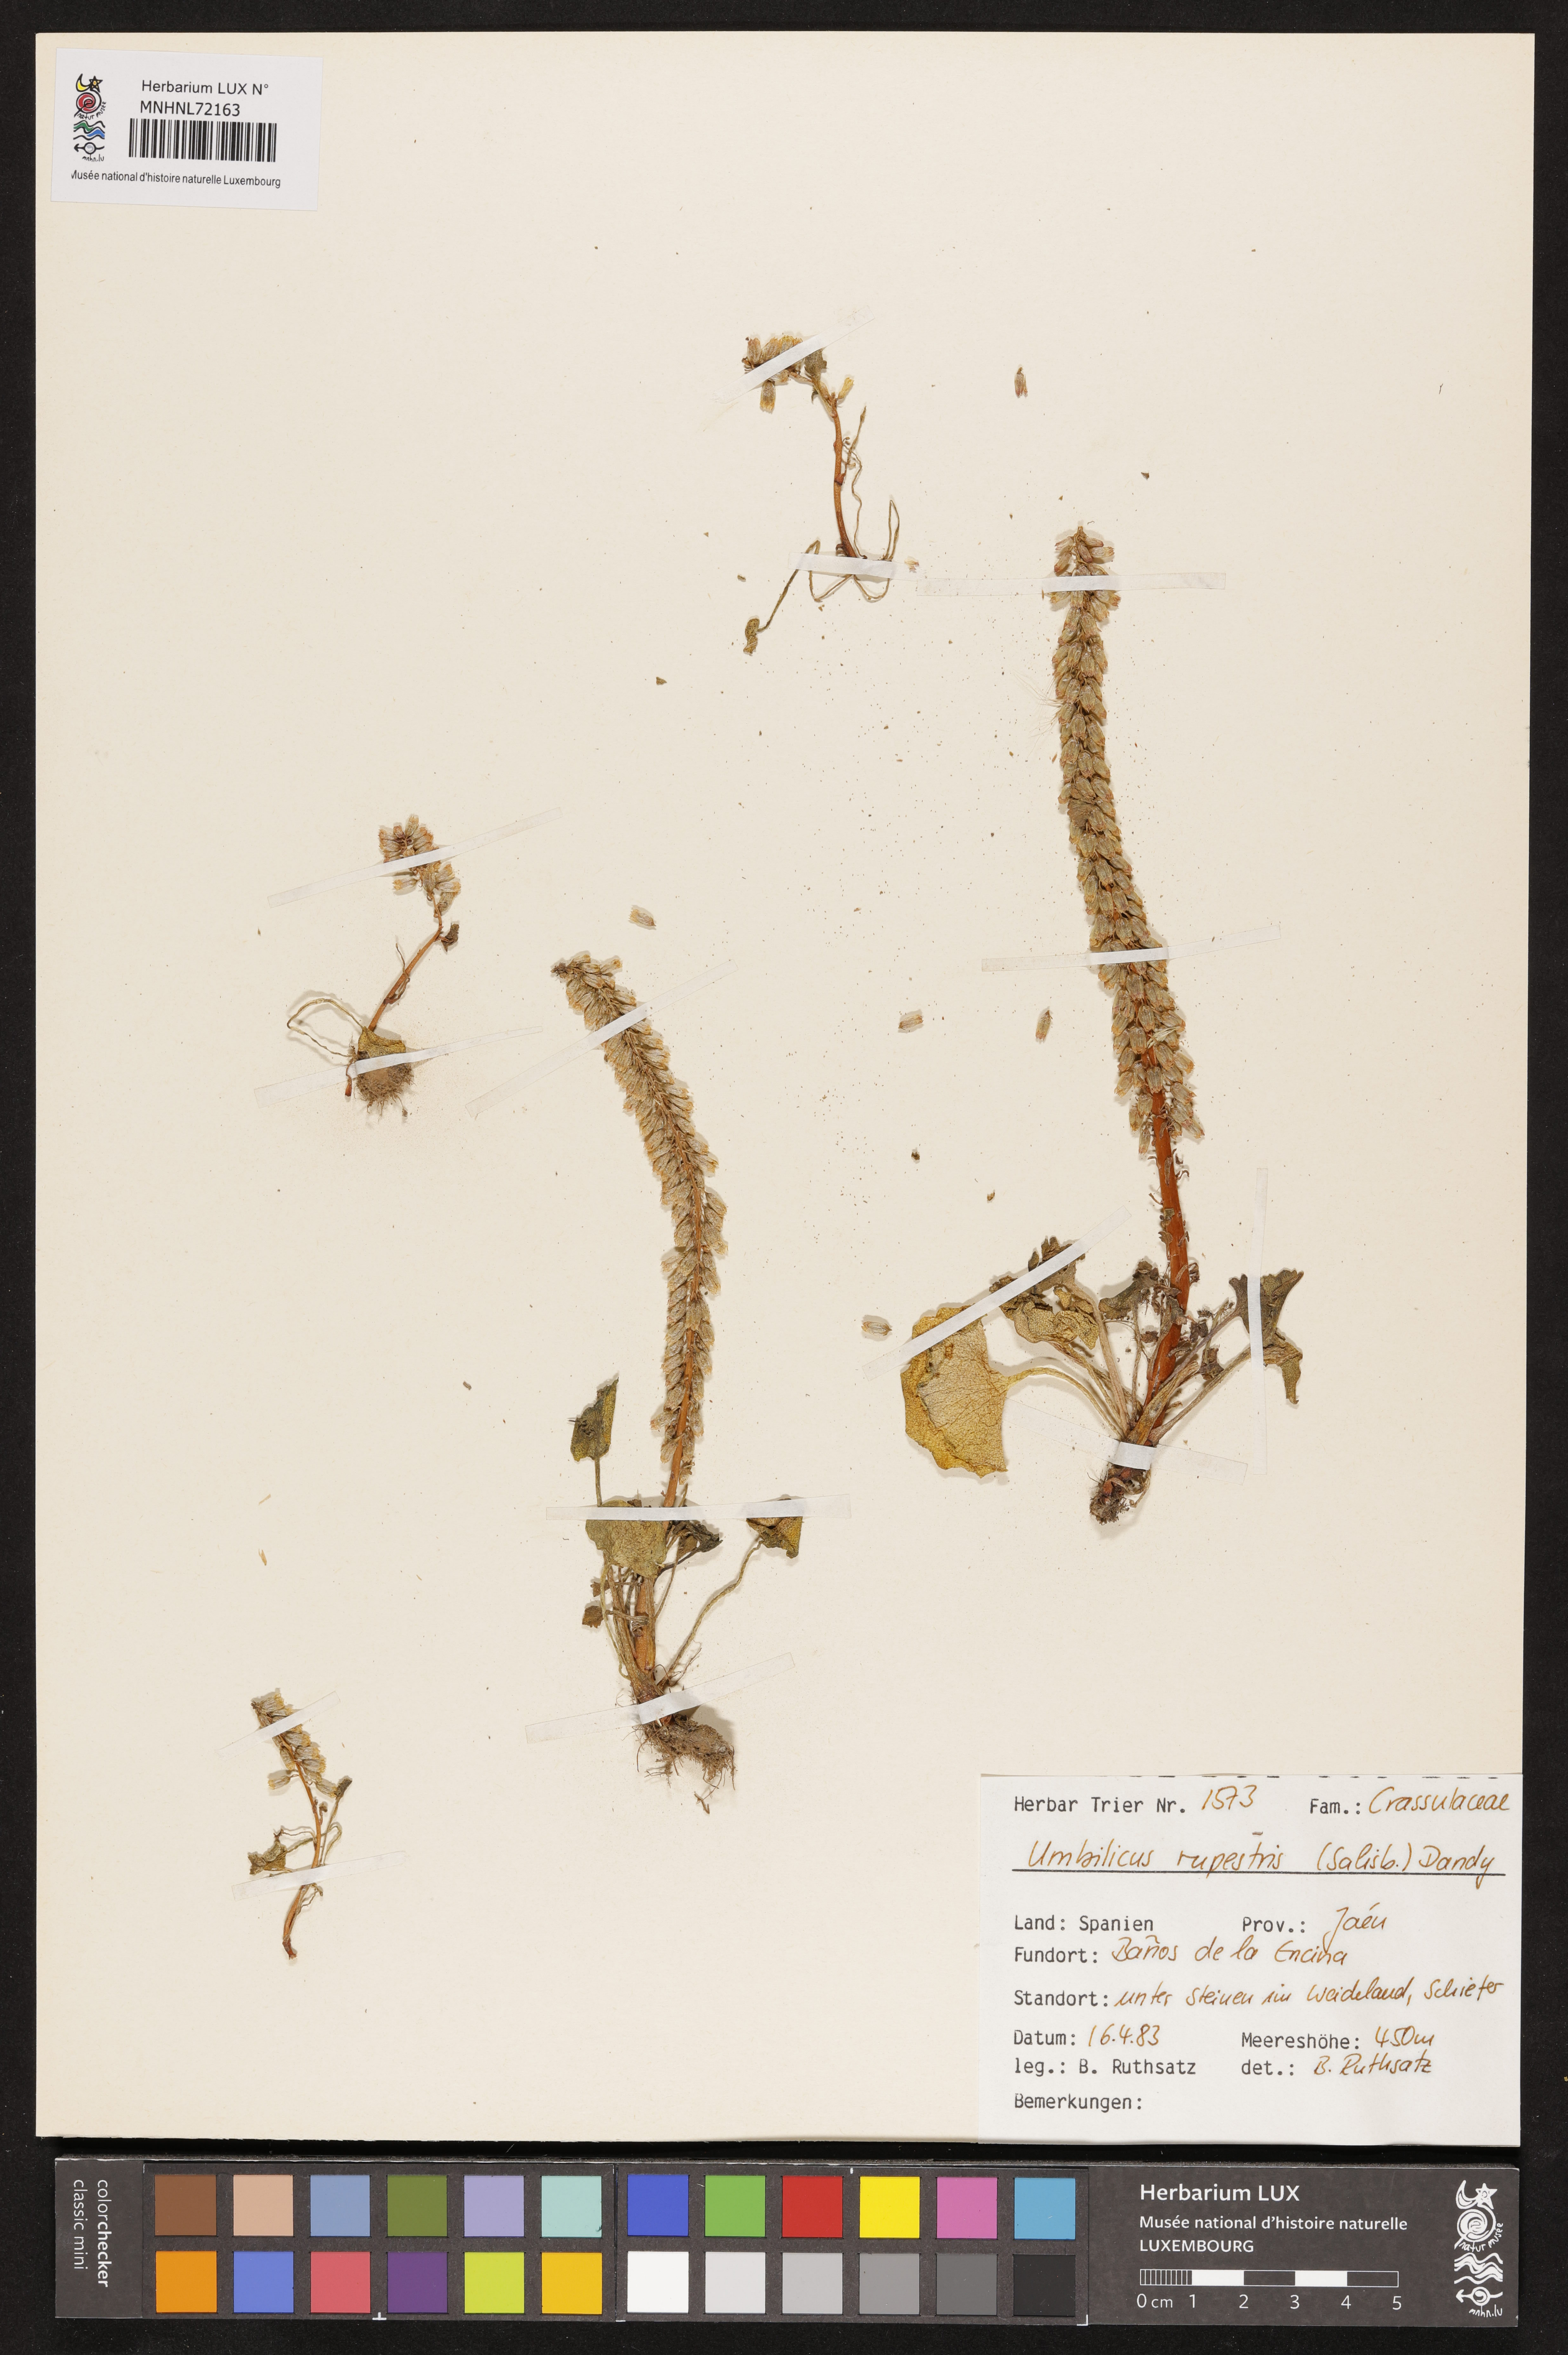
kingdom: Plantae
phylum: Tracheophyta
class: Magnoliopsida
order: Saxifragales
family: Crassulaceae
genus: Umbilicus
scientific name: Umbilicus rupestris
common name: Navelwort
